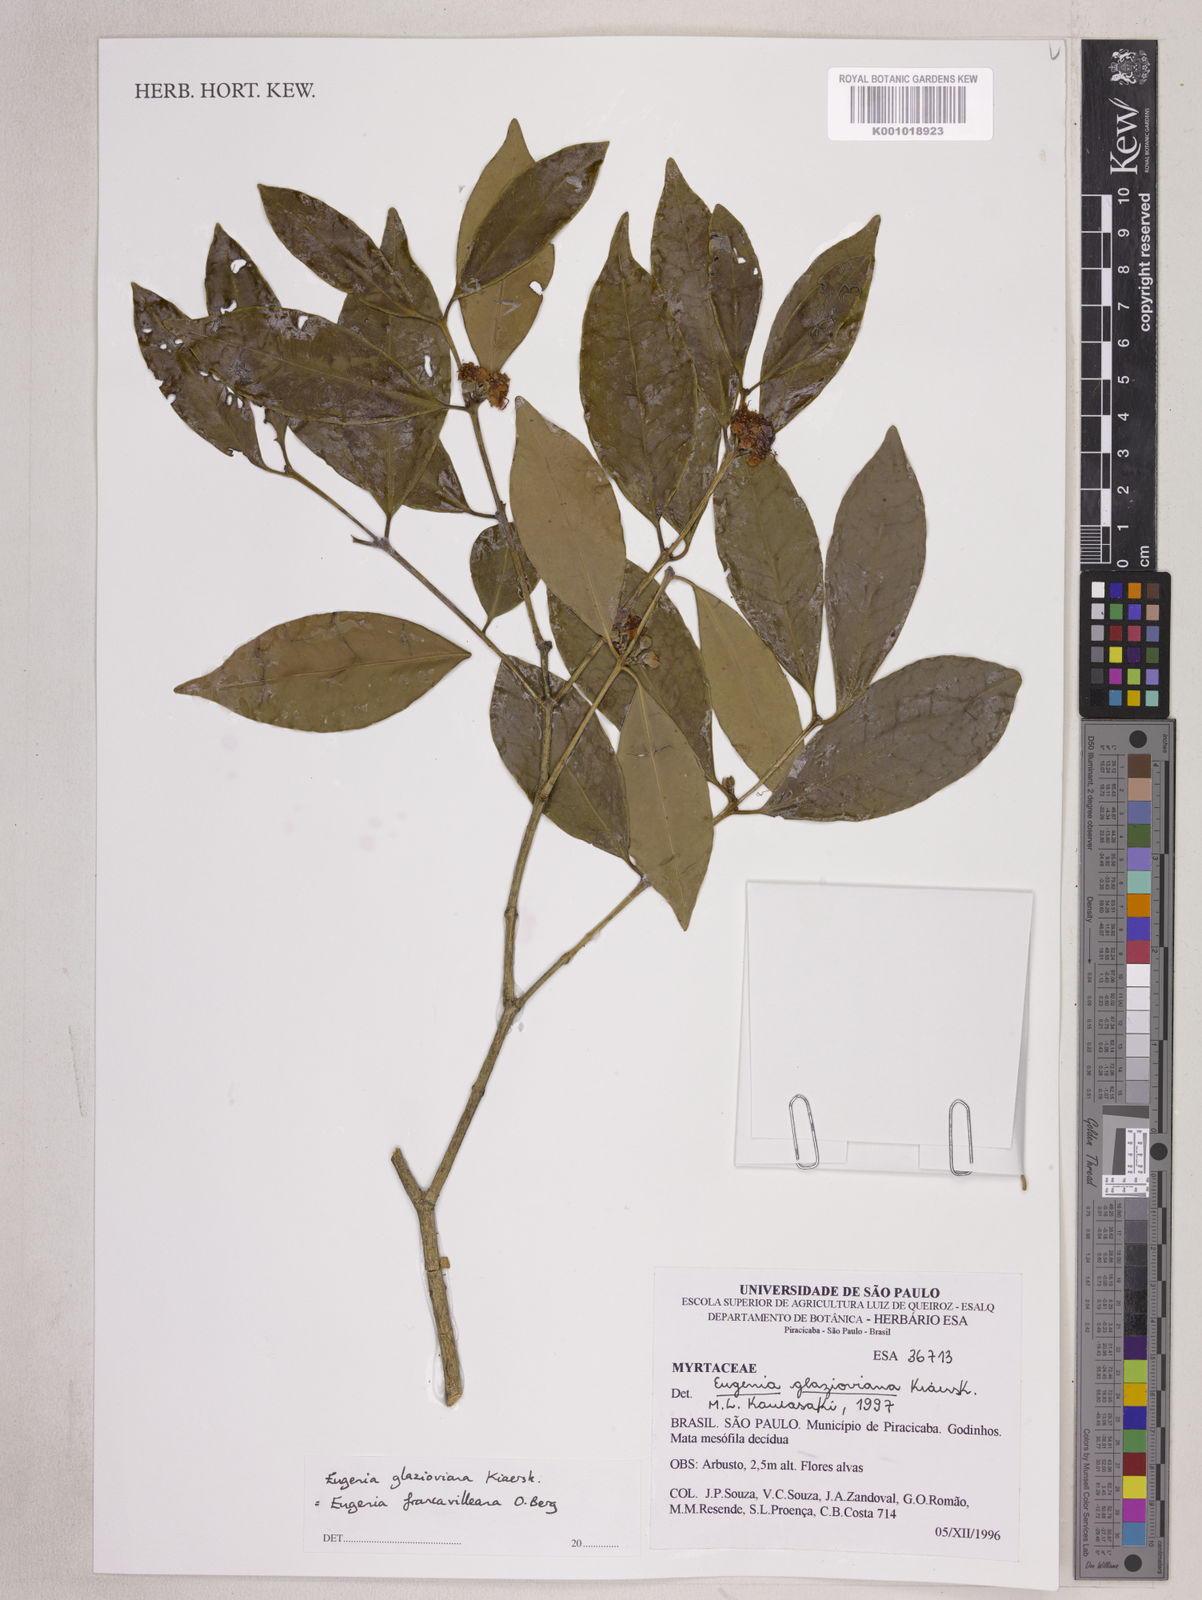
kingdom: Plantae
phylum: Tracheophyta
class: Magnoliopsida
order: Myrtales
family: Myrtaceae
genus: Eugenia
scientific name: Eugenia francavilleana
